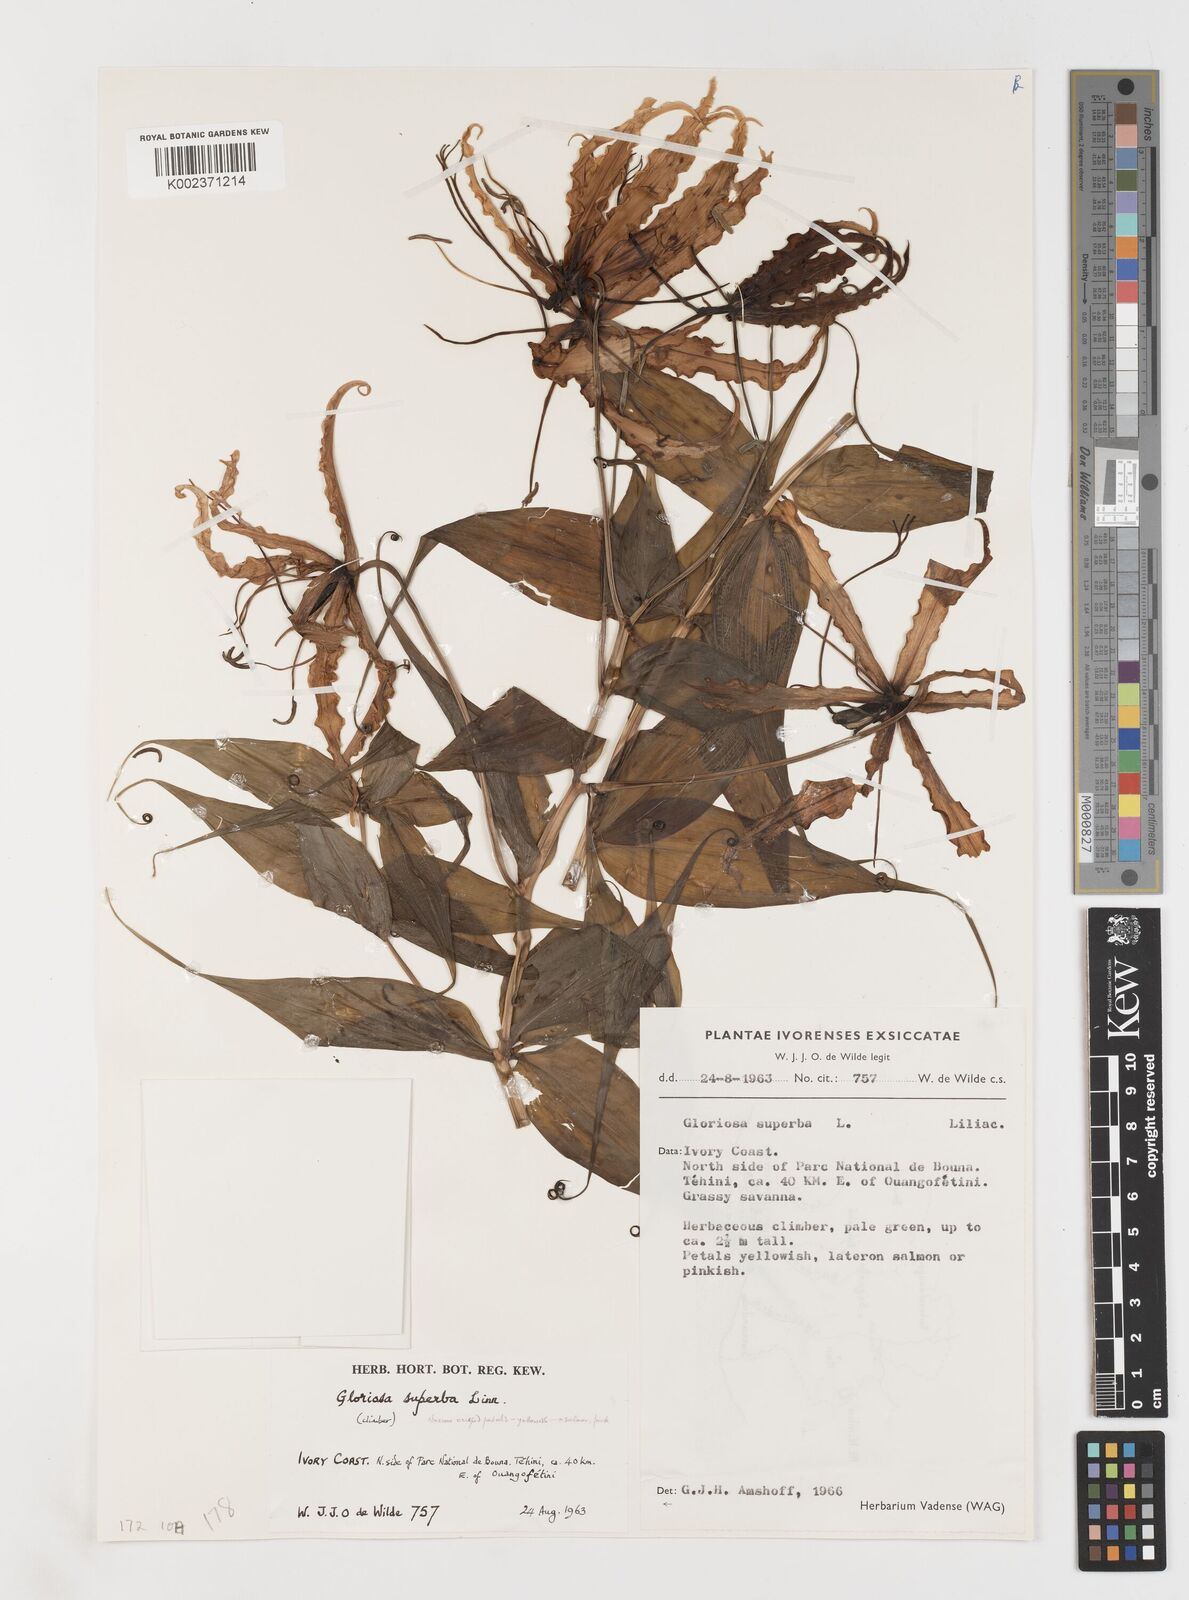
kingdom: Plantae
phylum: Tracheophyta
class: Liliopsida
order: Liliales
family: Colchicaceae
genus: Gloriosa
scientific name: Gloriosa superba
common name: Flame lily
